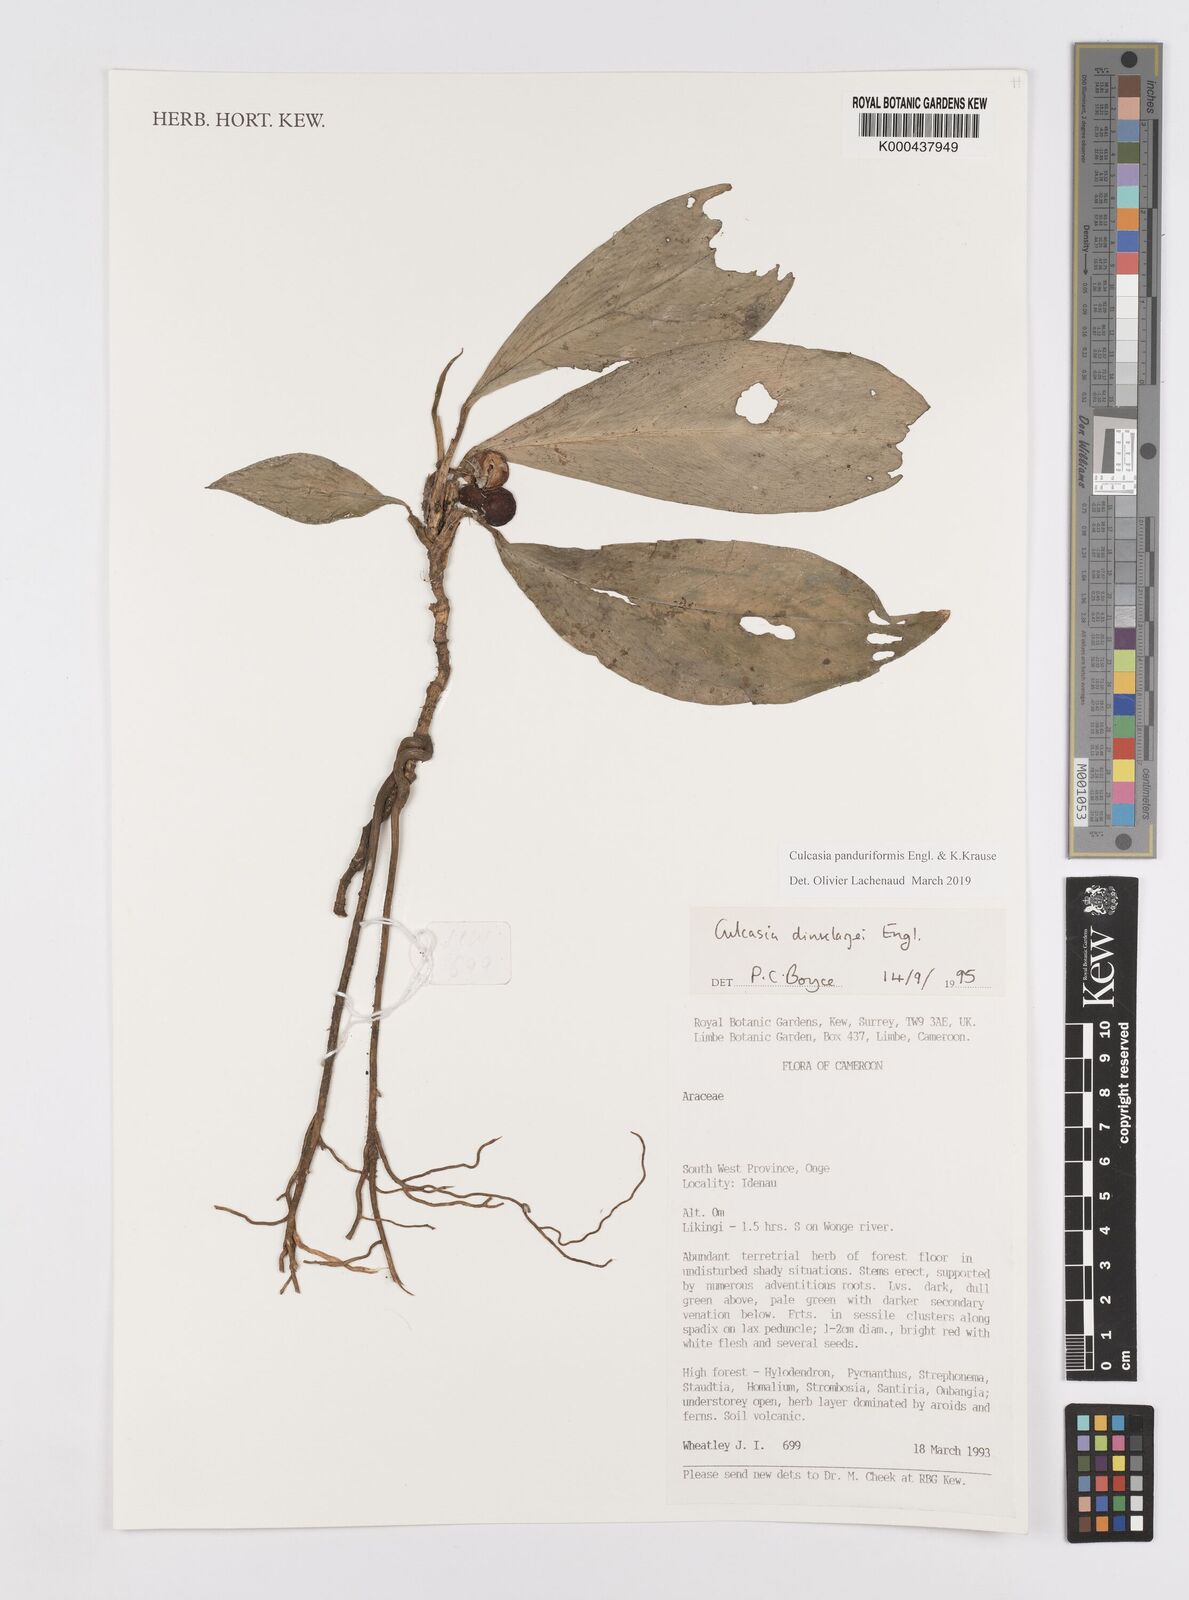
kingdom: Plantae
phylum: Tracheophyta
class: Liliopsida
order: Alismatales
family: Araceae
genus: Culcasia
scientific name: Culcasia panduriformis
